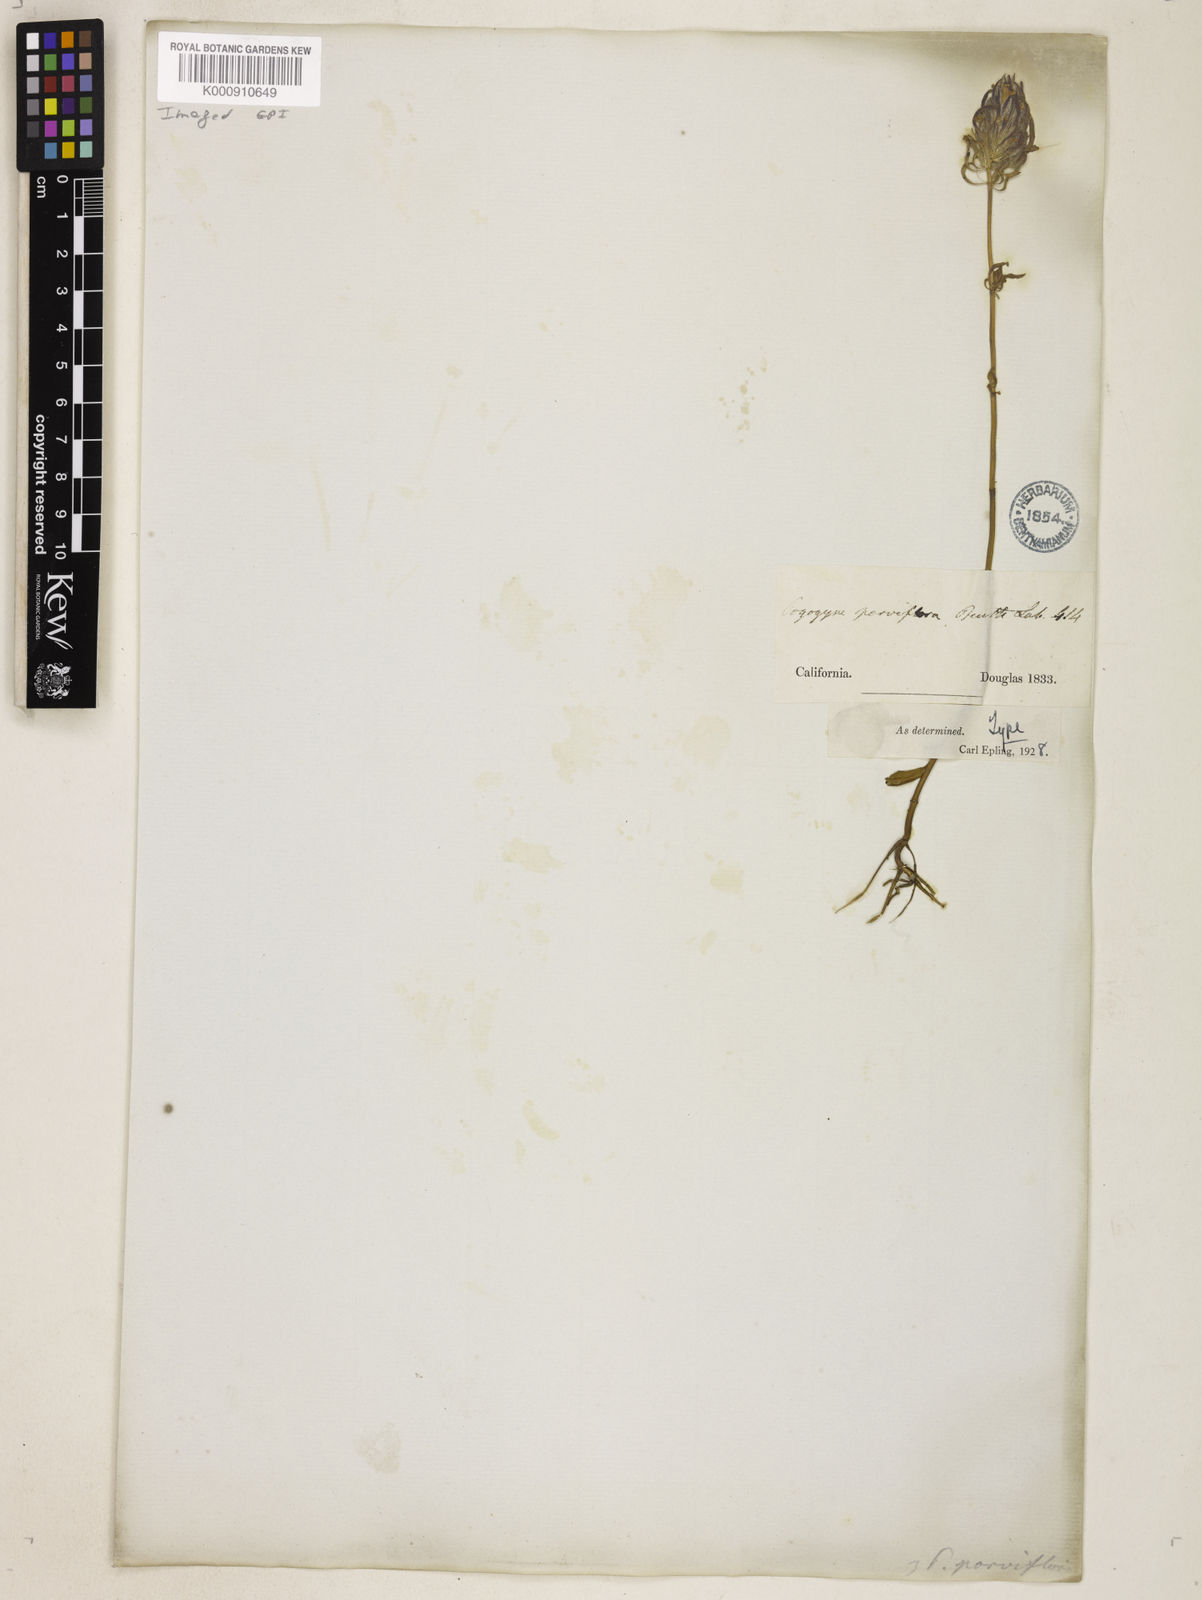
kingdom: Plantae
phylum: Tracheophyta
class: Magnoliopsida
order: Lamiales
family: Lamiaceae
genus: Pogogyne
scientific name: Pogogyne douglasii
